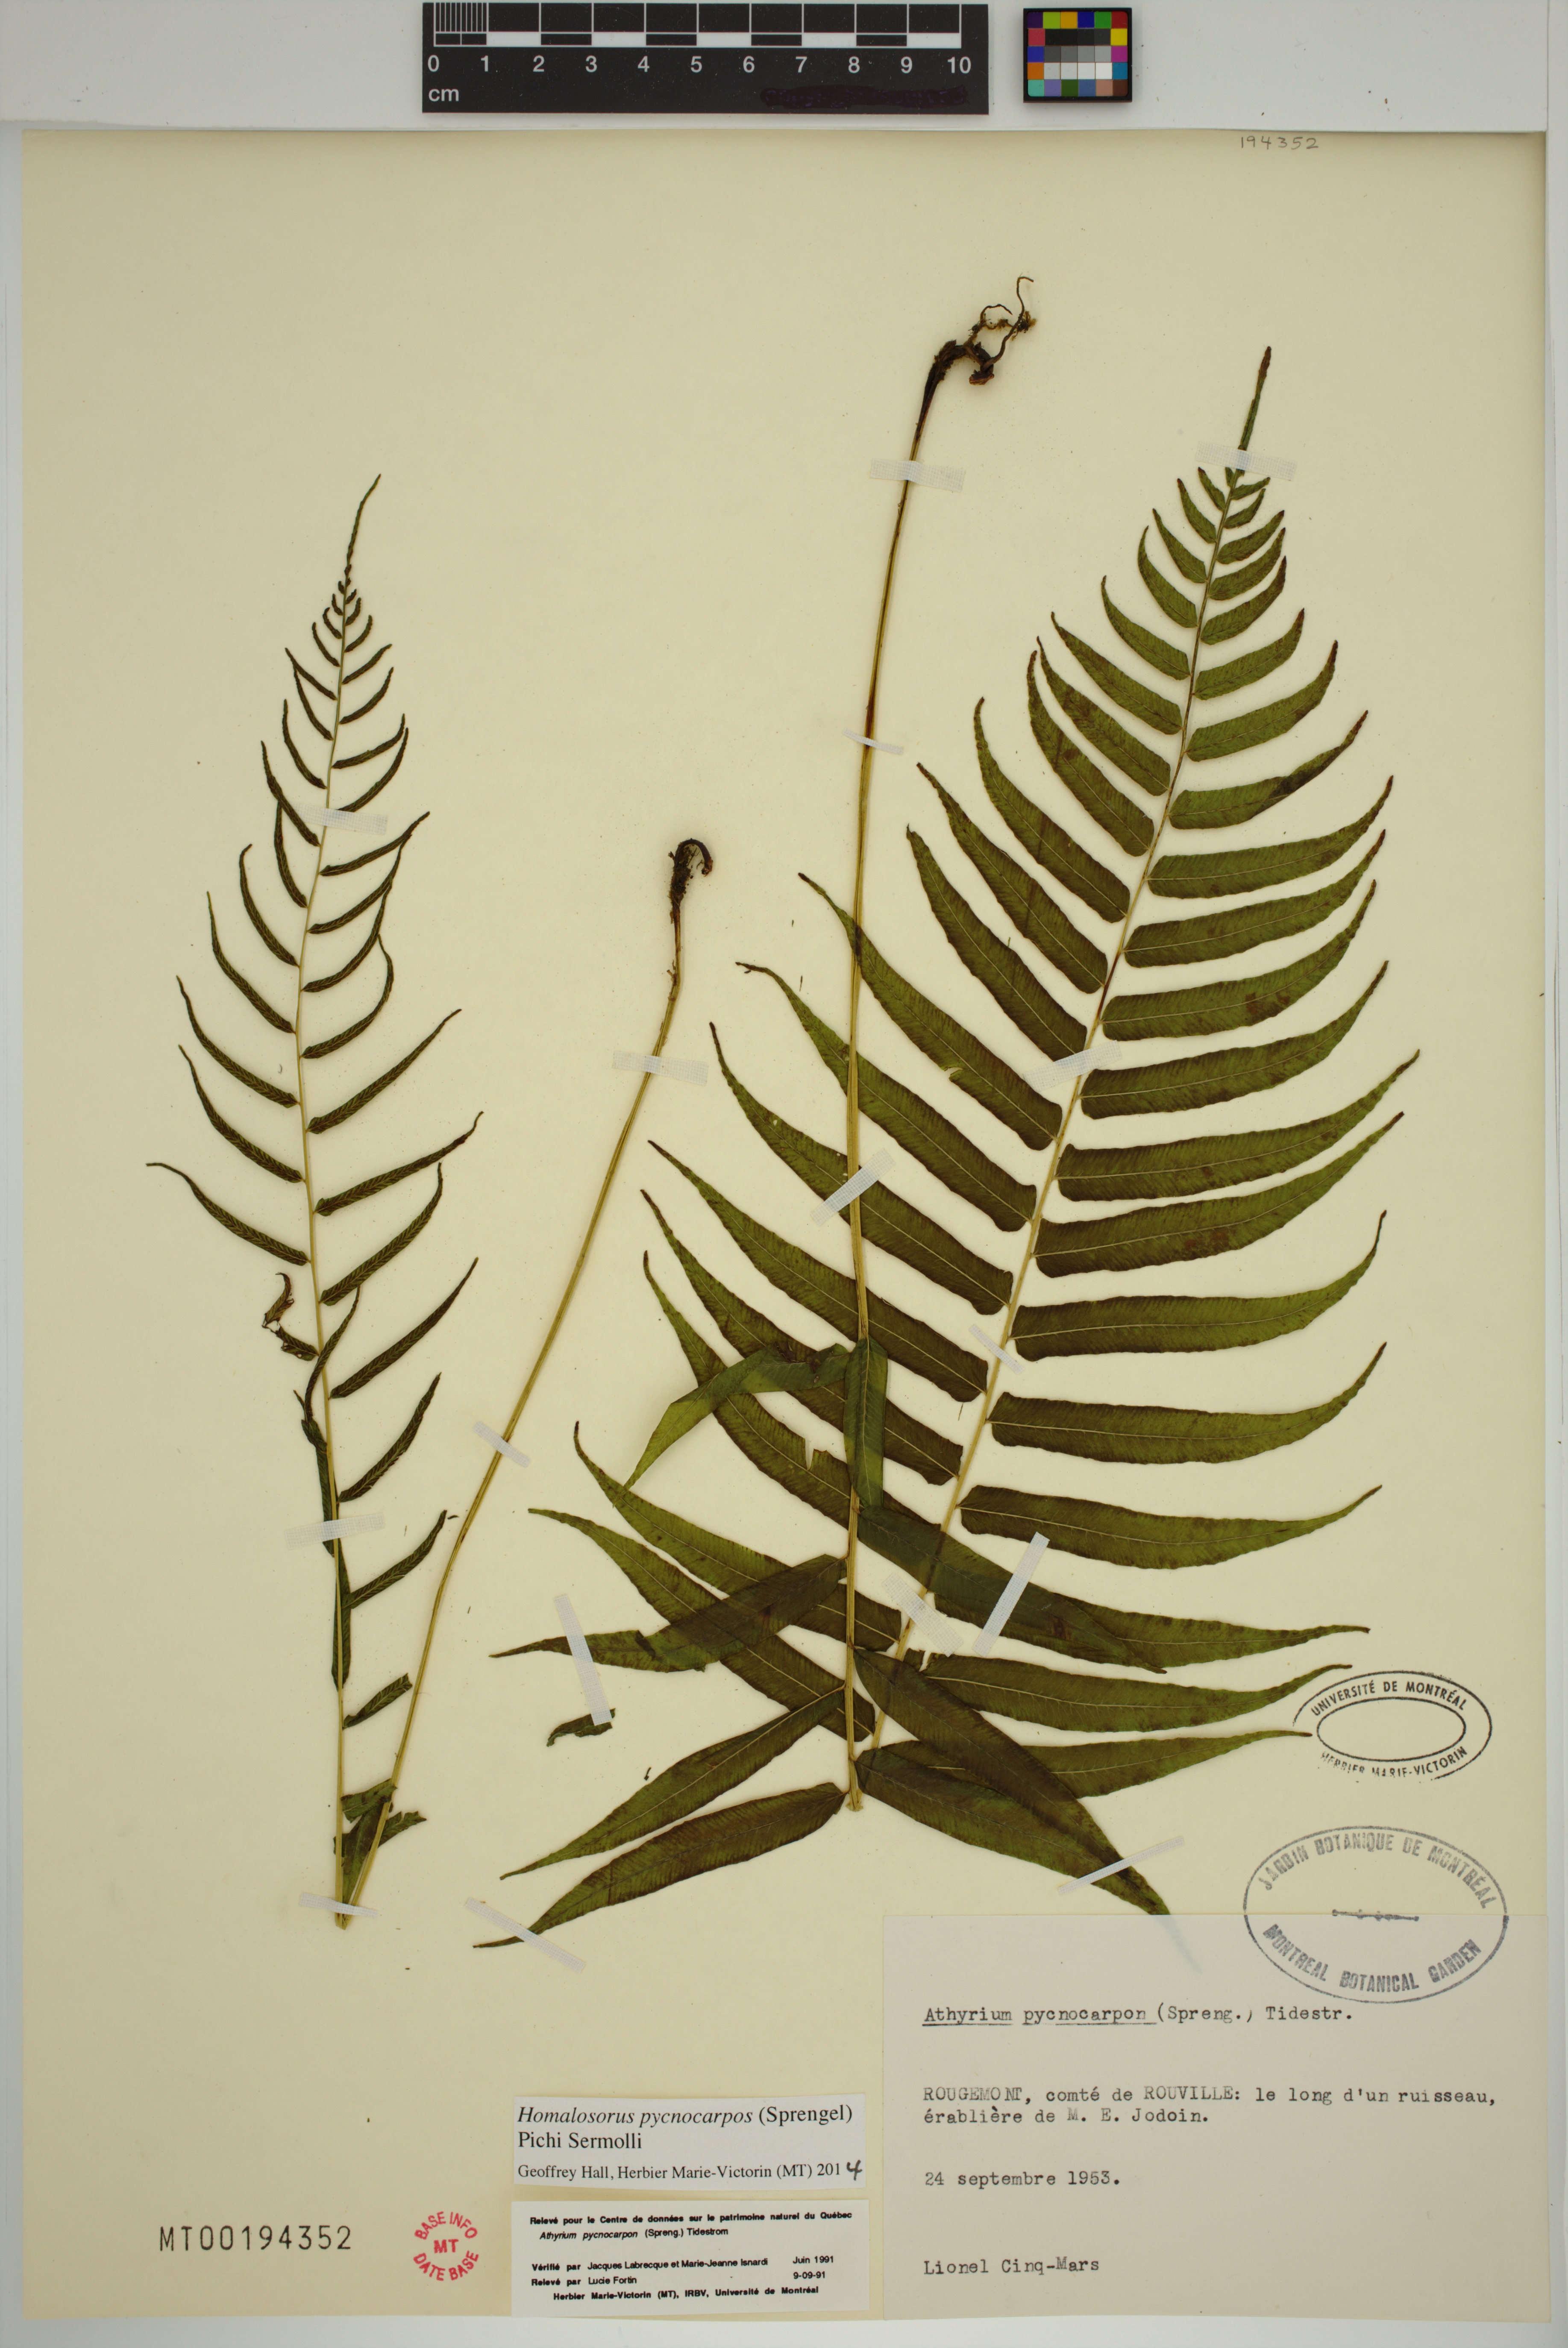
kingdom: Plantae
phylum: Tracheophyta
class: Polypodiopsida
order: Polypodiales
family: Diplaziopsidaceae
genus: Homalosorus
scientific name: Homalosorus pycnocarpos
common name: Glade fern
